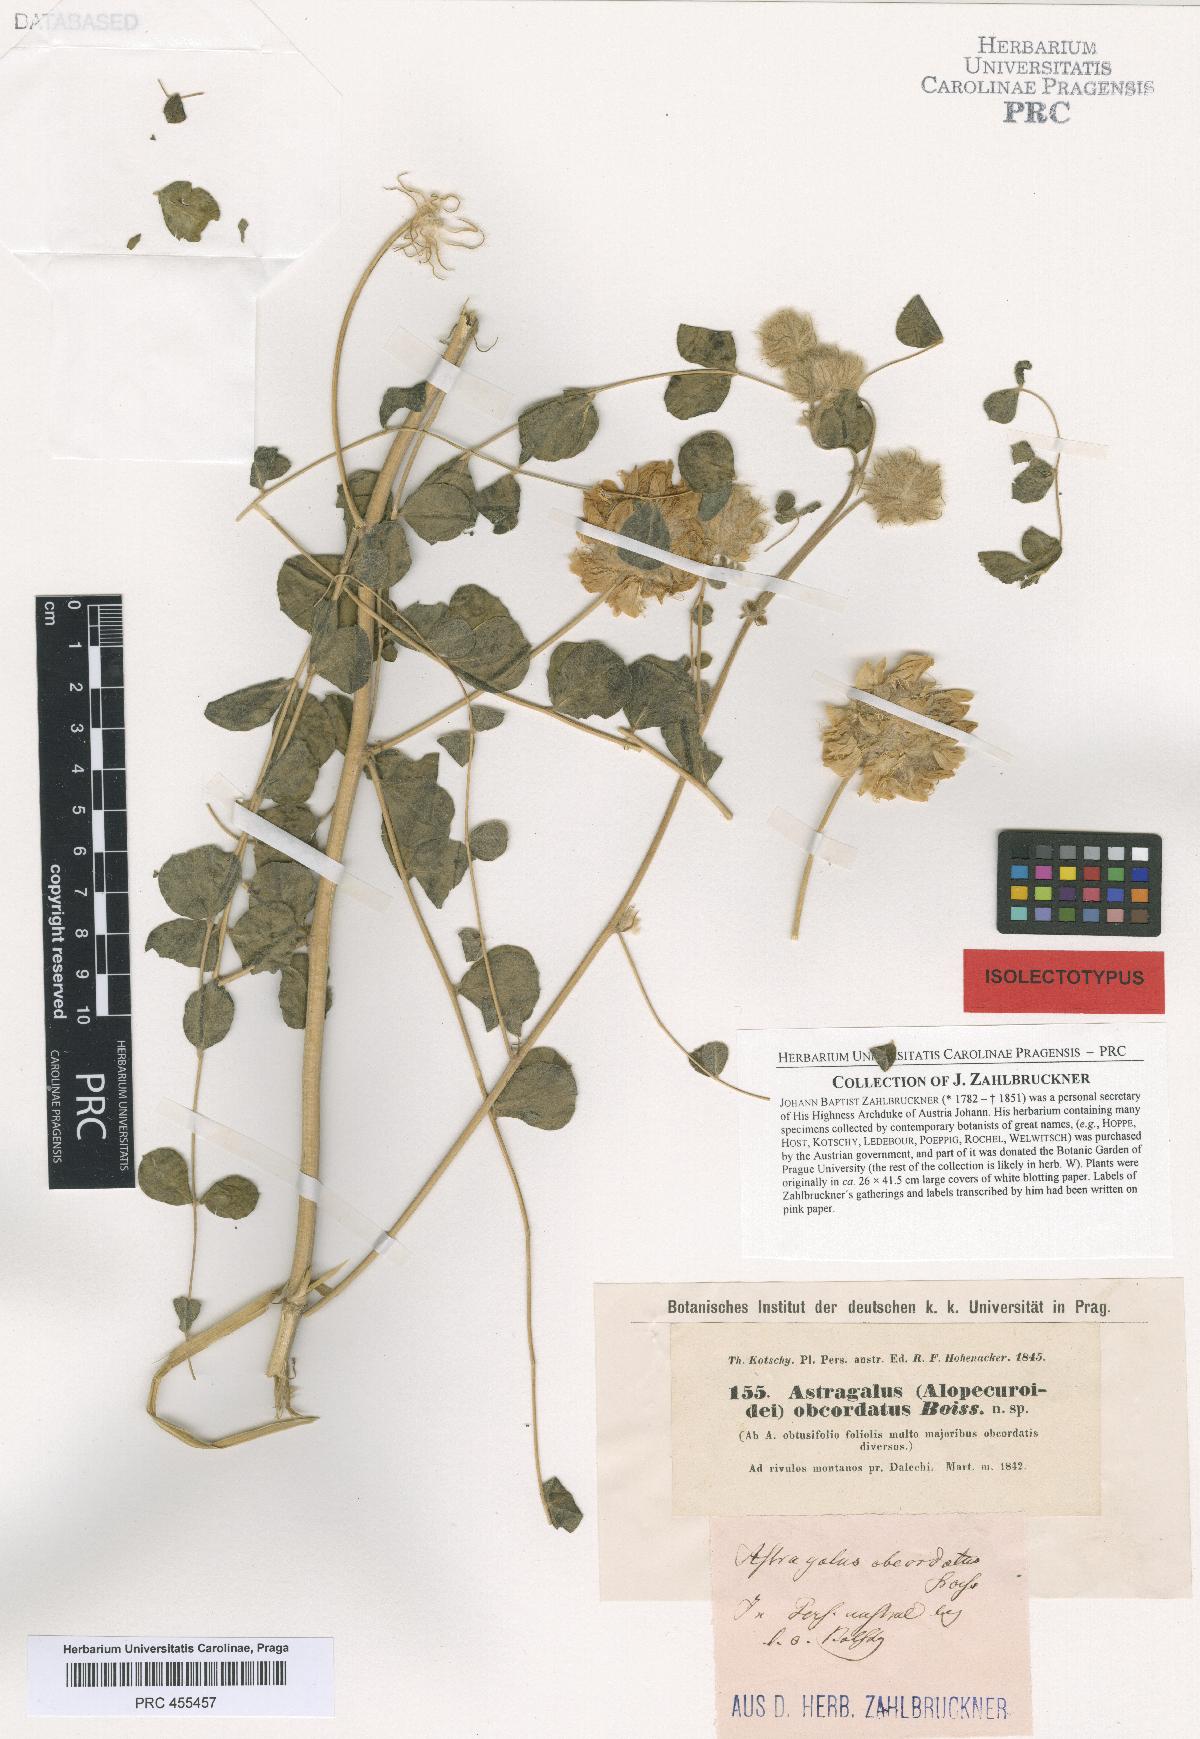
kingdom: Plantae
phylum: Tracheophyta
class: Magnoliopsida
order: Fabales
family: Fabaceae
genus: Astragalus
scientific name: Astragalus obtusifolius
